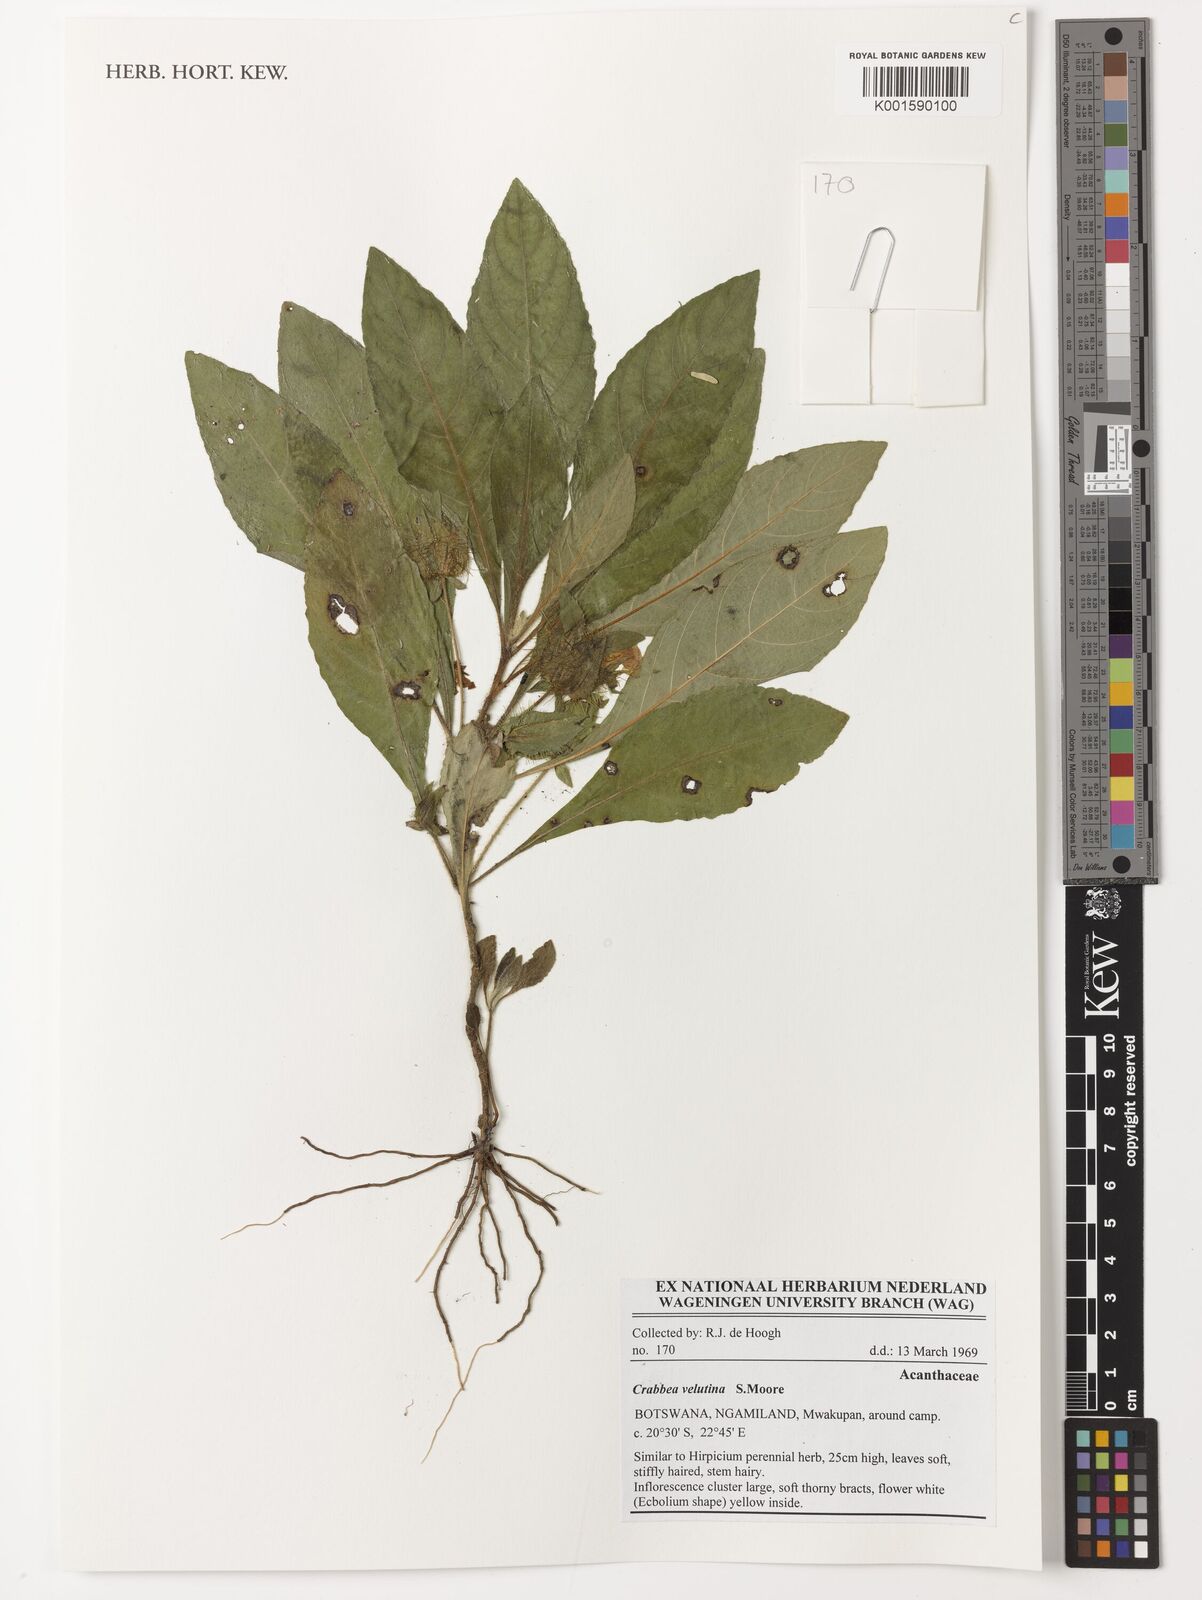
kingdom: Plantae
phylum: Tracheophyta
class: Magnoliopsida
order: Lamiales
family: Acanthaceae
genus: Crabbea
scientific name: Crabbea velutina
